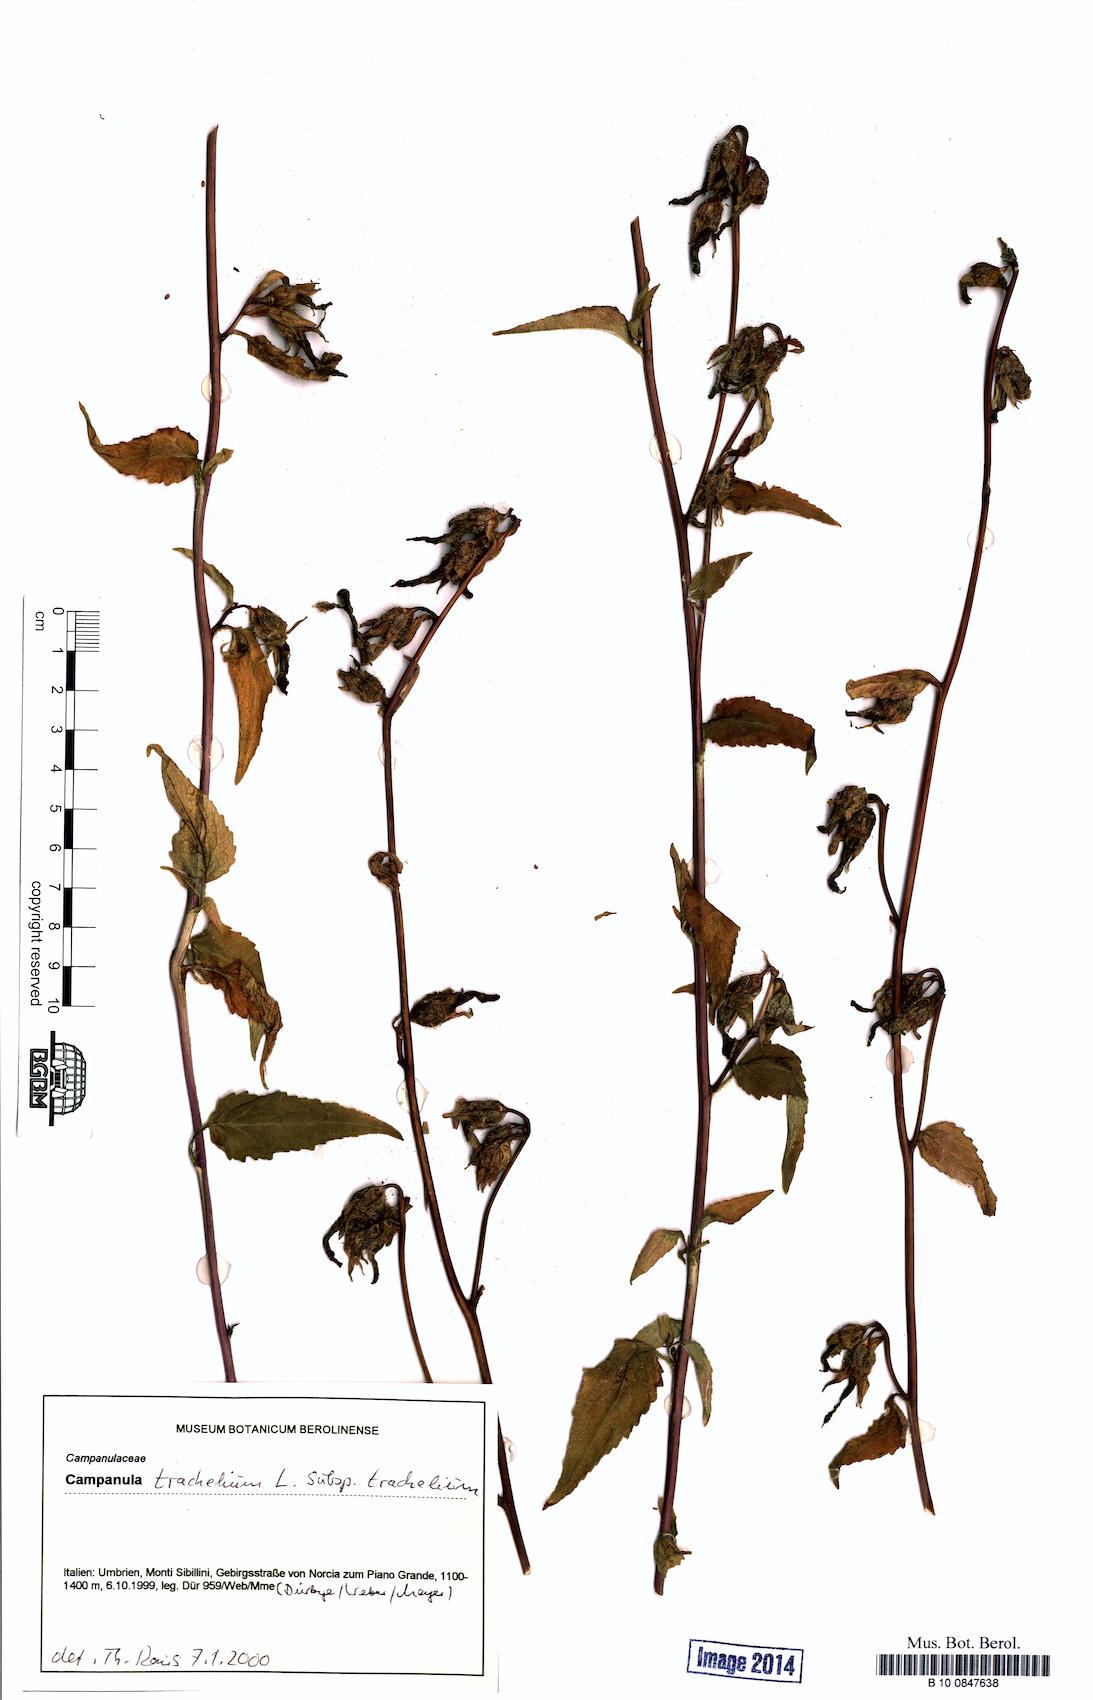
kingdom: Plantae
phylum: Tracheophyta
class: Magnoliopsida
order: Asterales
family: Campanulaceae
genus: Campanula
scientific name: Campanula trachelium
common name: Nettle-leaved bellflower
